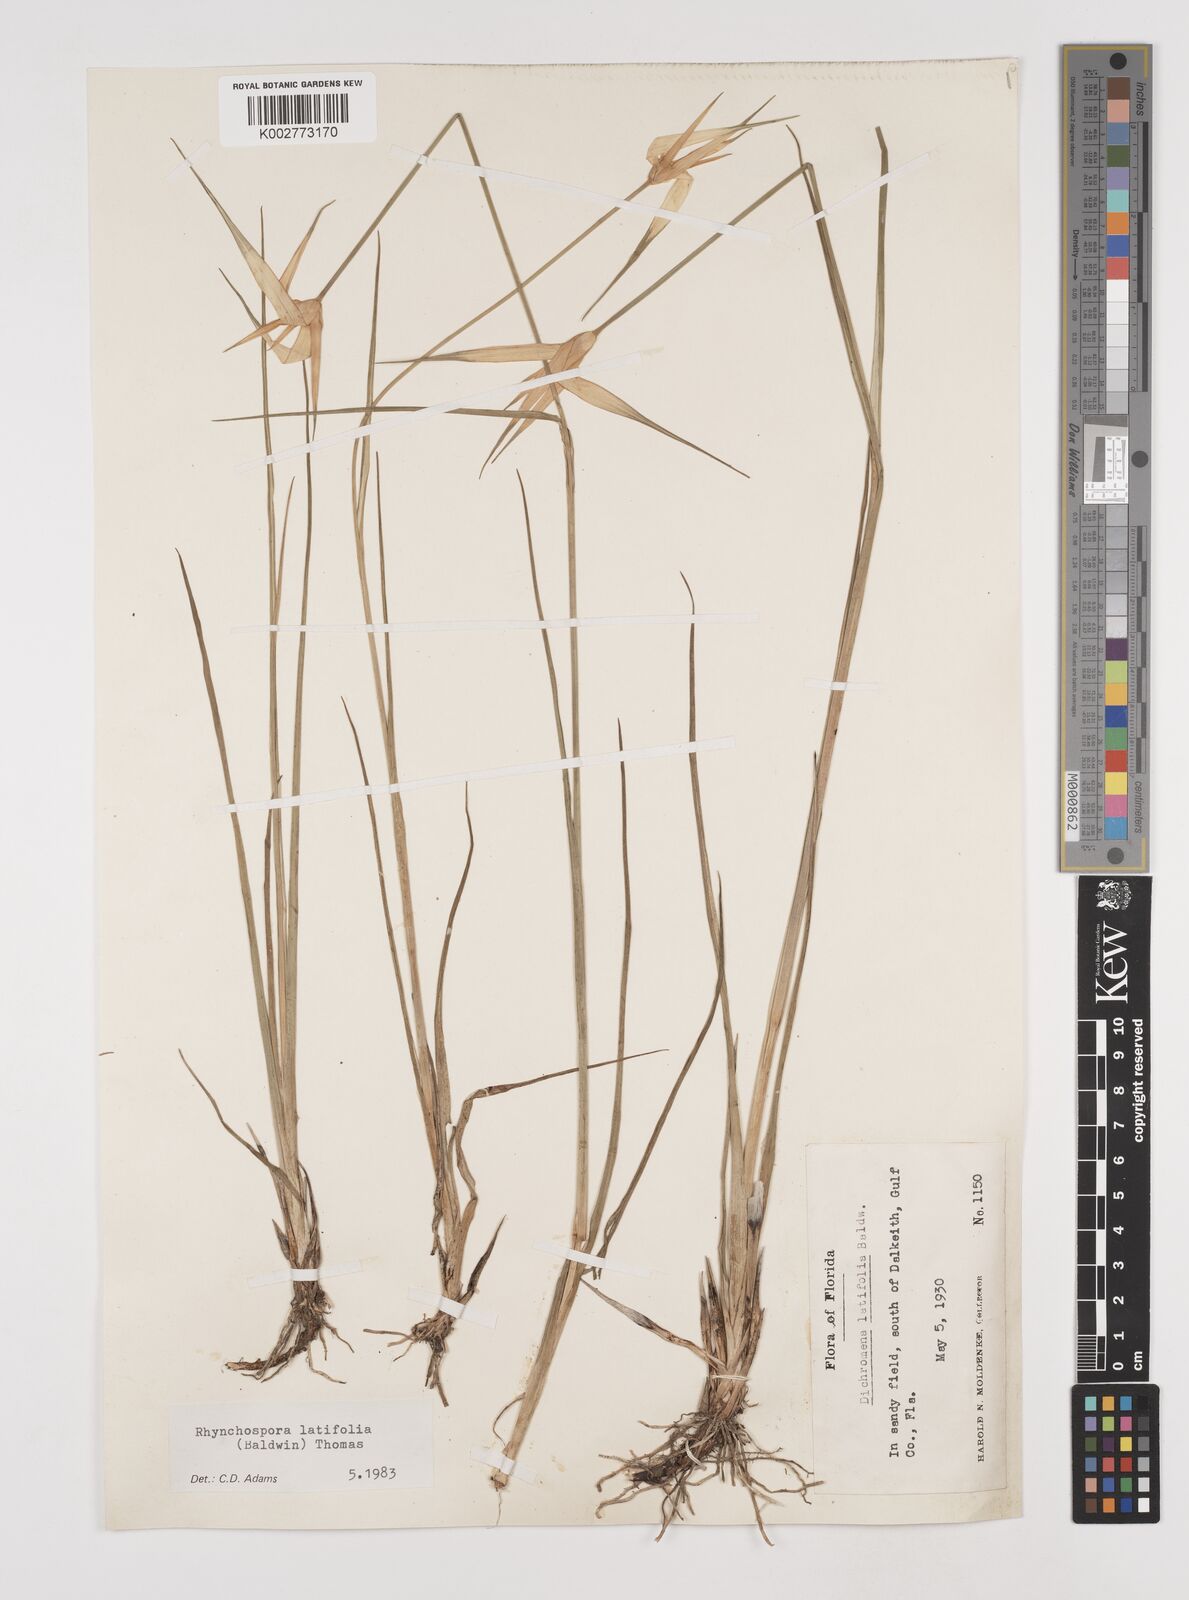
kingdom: Plantae
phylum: Tracheophyta
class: Liliopsida
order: Poales
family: Cyperaceae
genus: Rhynchospora
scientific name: Rhynchospora colorata
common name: Star sedge
